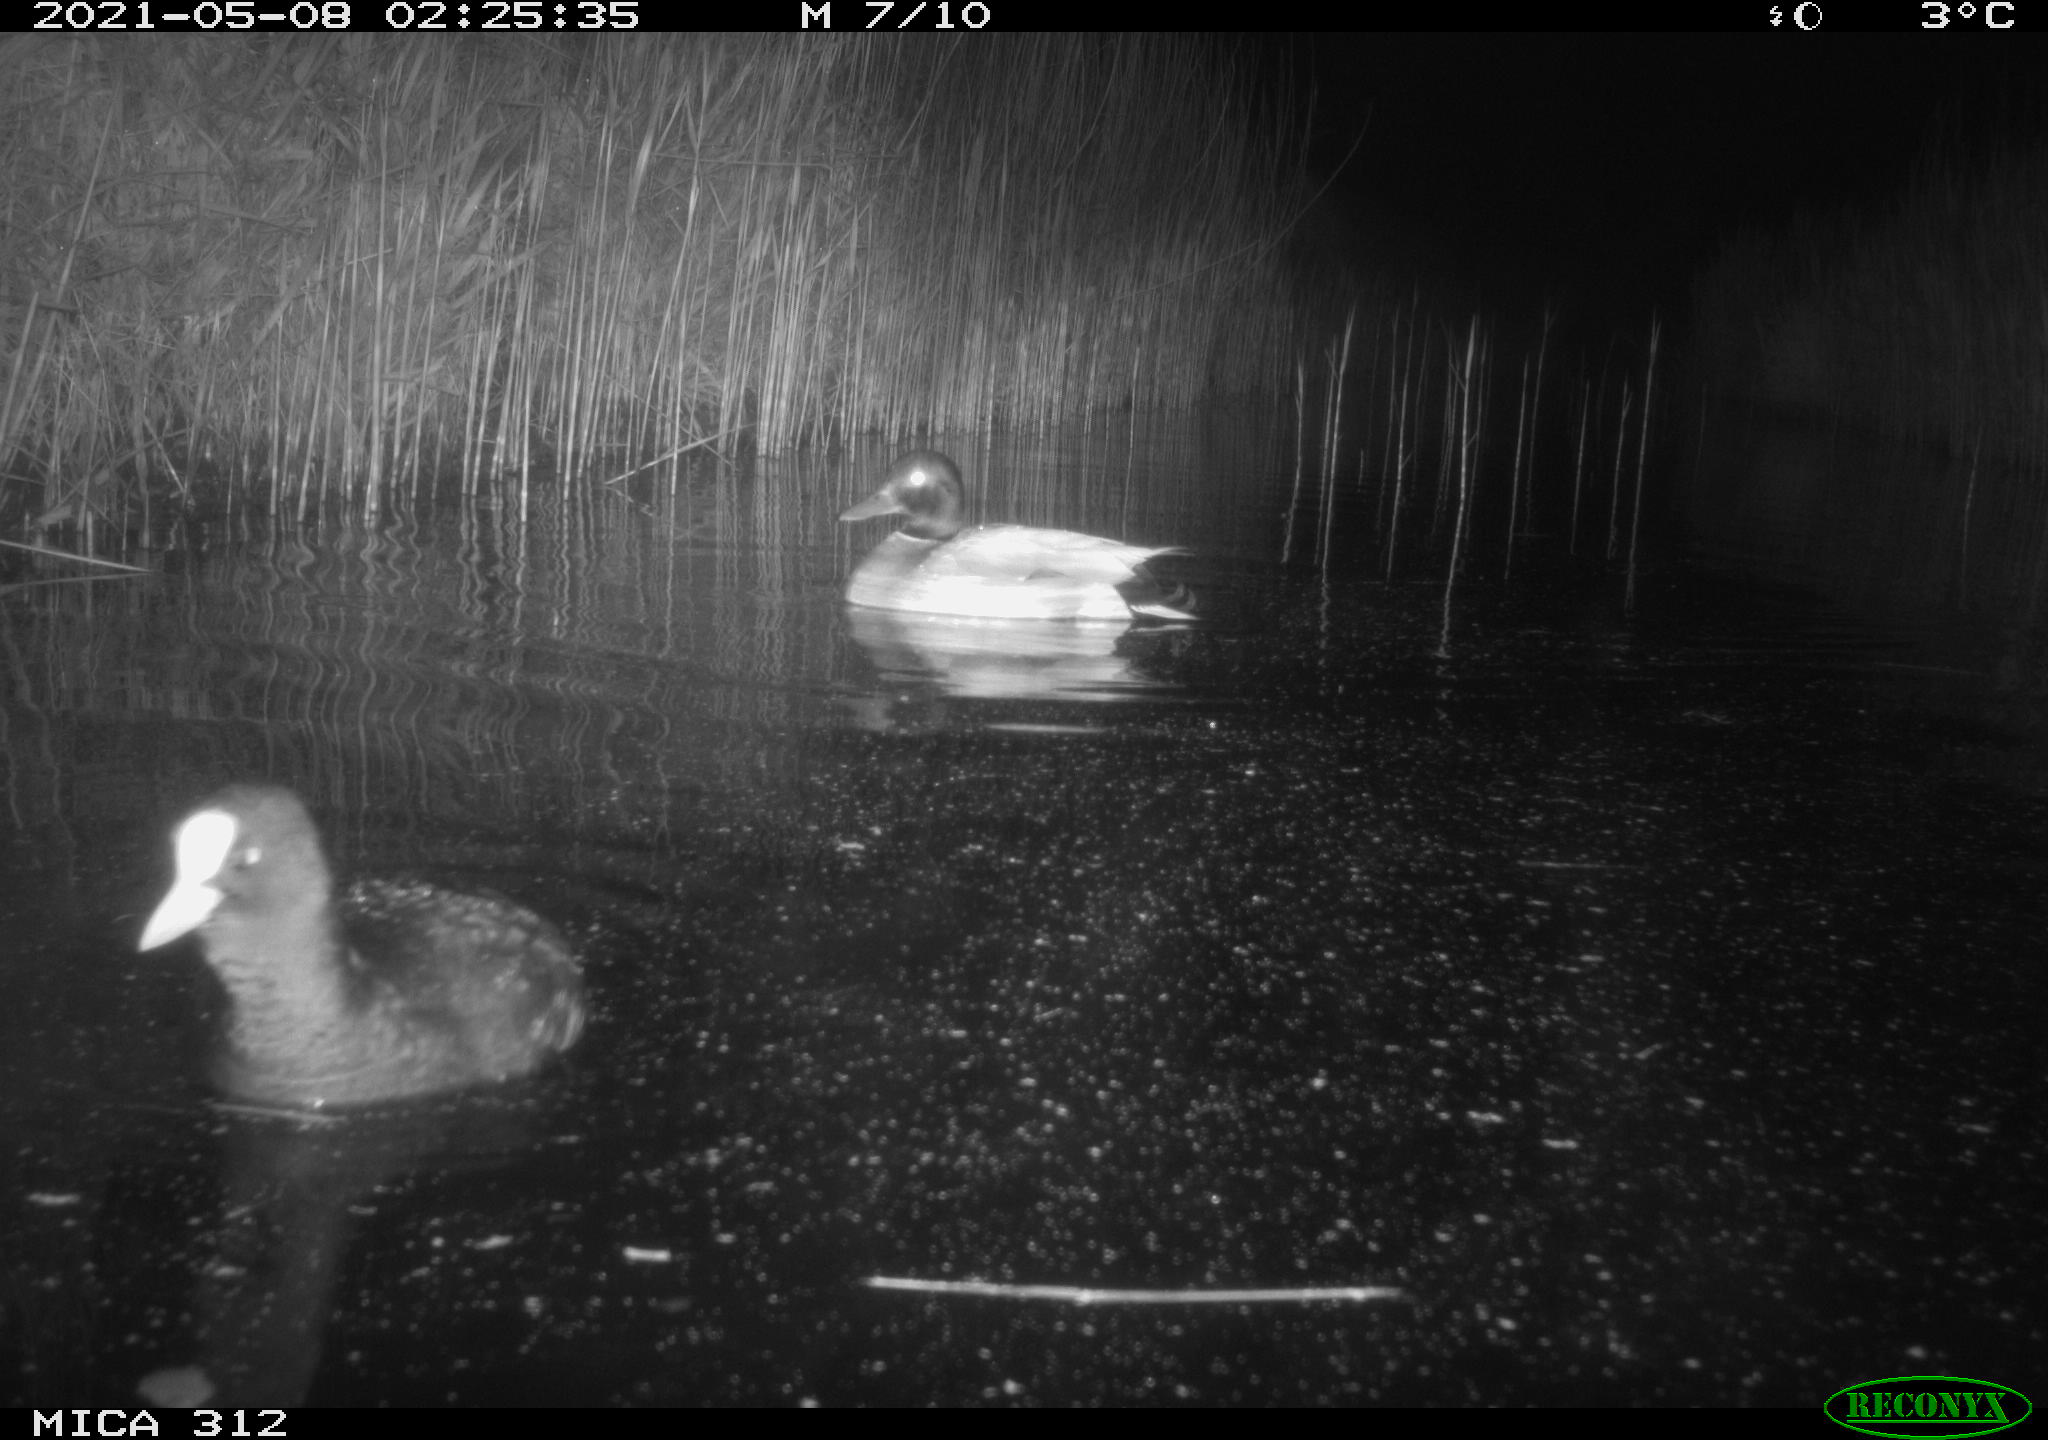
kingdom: Animalia
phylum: Chordata
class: Aves
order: Gruiformes
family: Rallidae
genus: Fulica
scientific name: Fulica atra
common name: Eurasian coot
